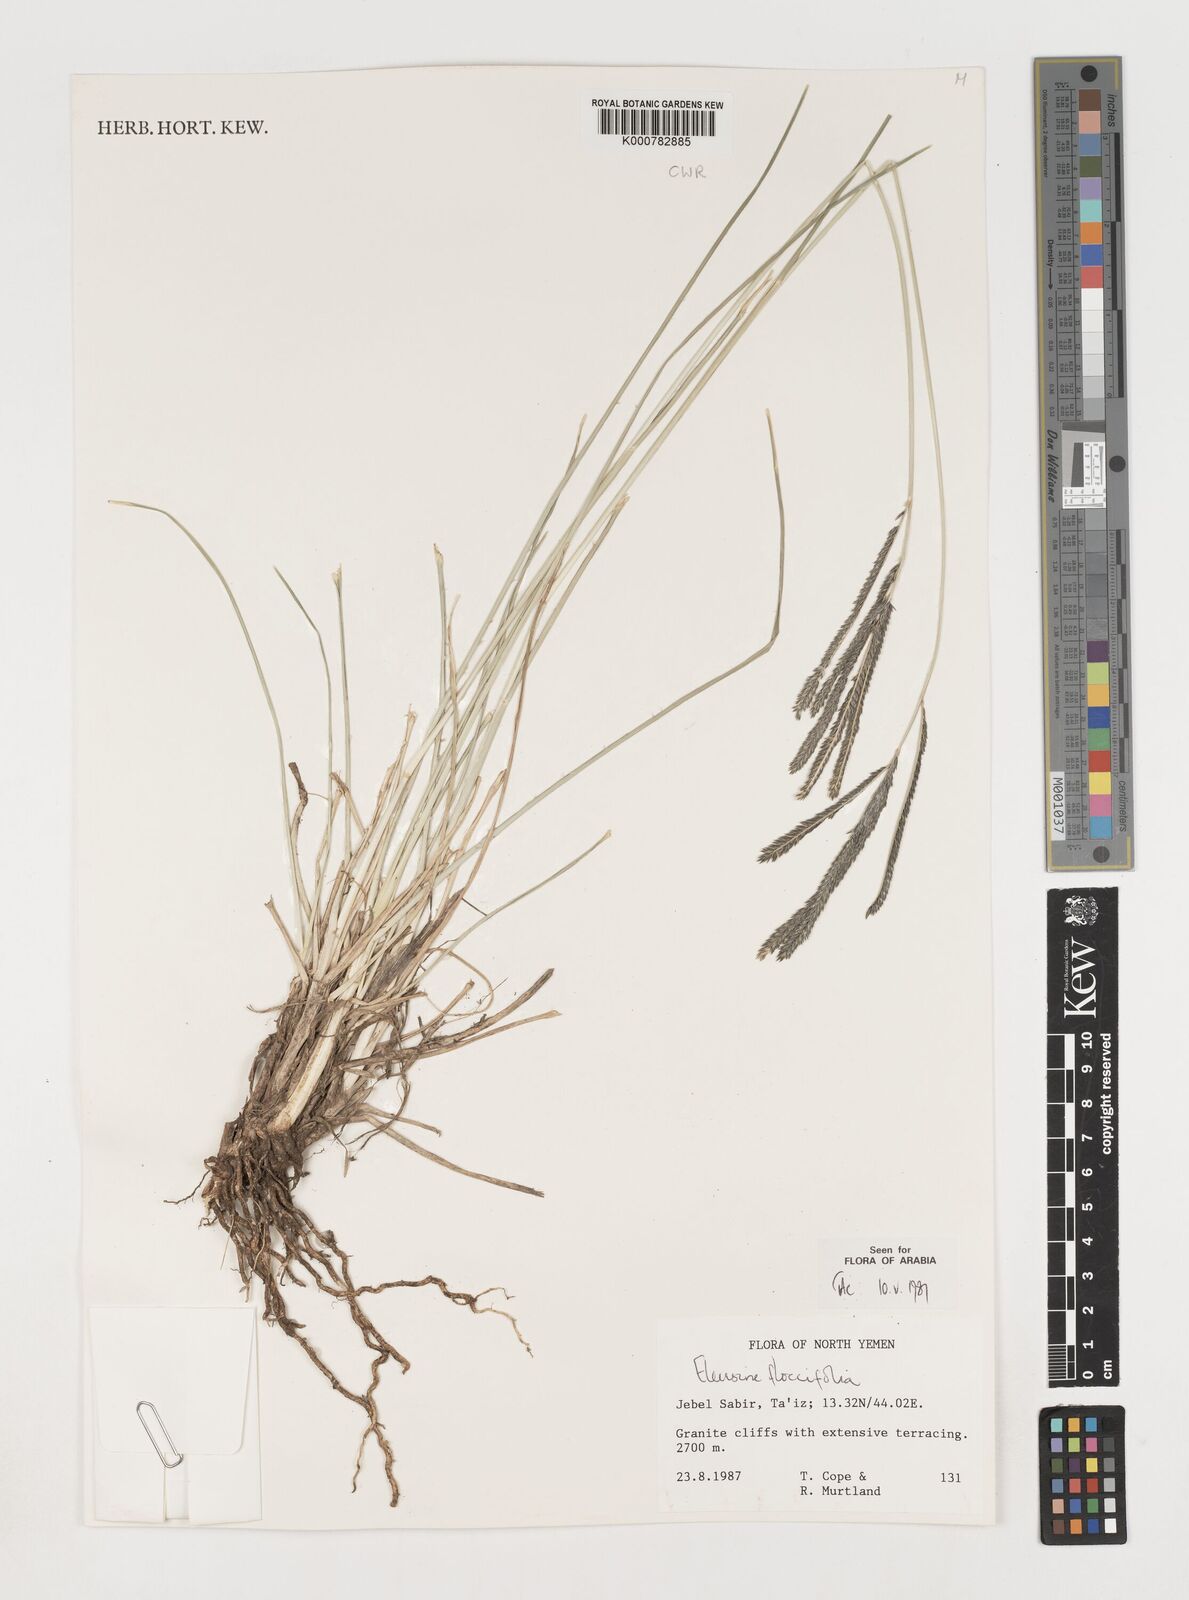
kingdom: Plantae
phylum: Tracheophyta
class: Liliopsida
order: Poales
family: Poaceae
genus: Eleusine
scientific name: Eleusine floccifolia
